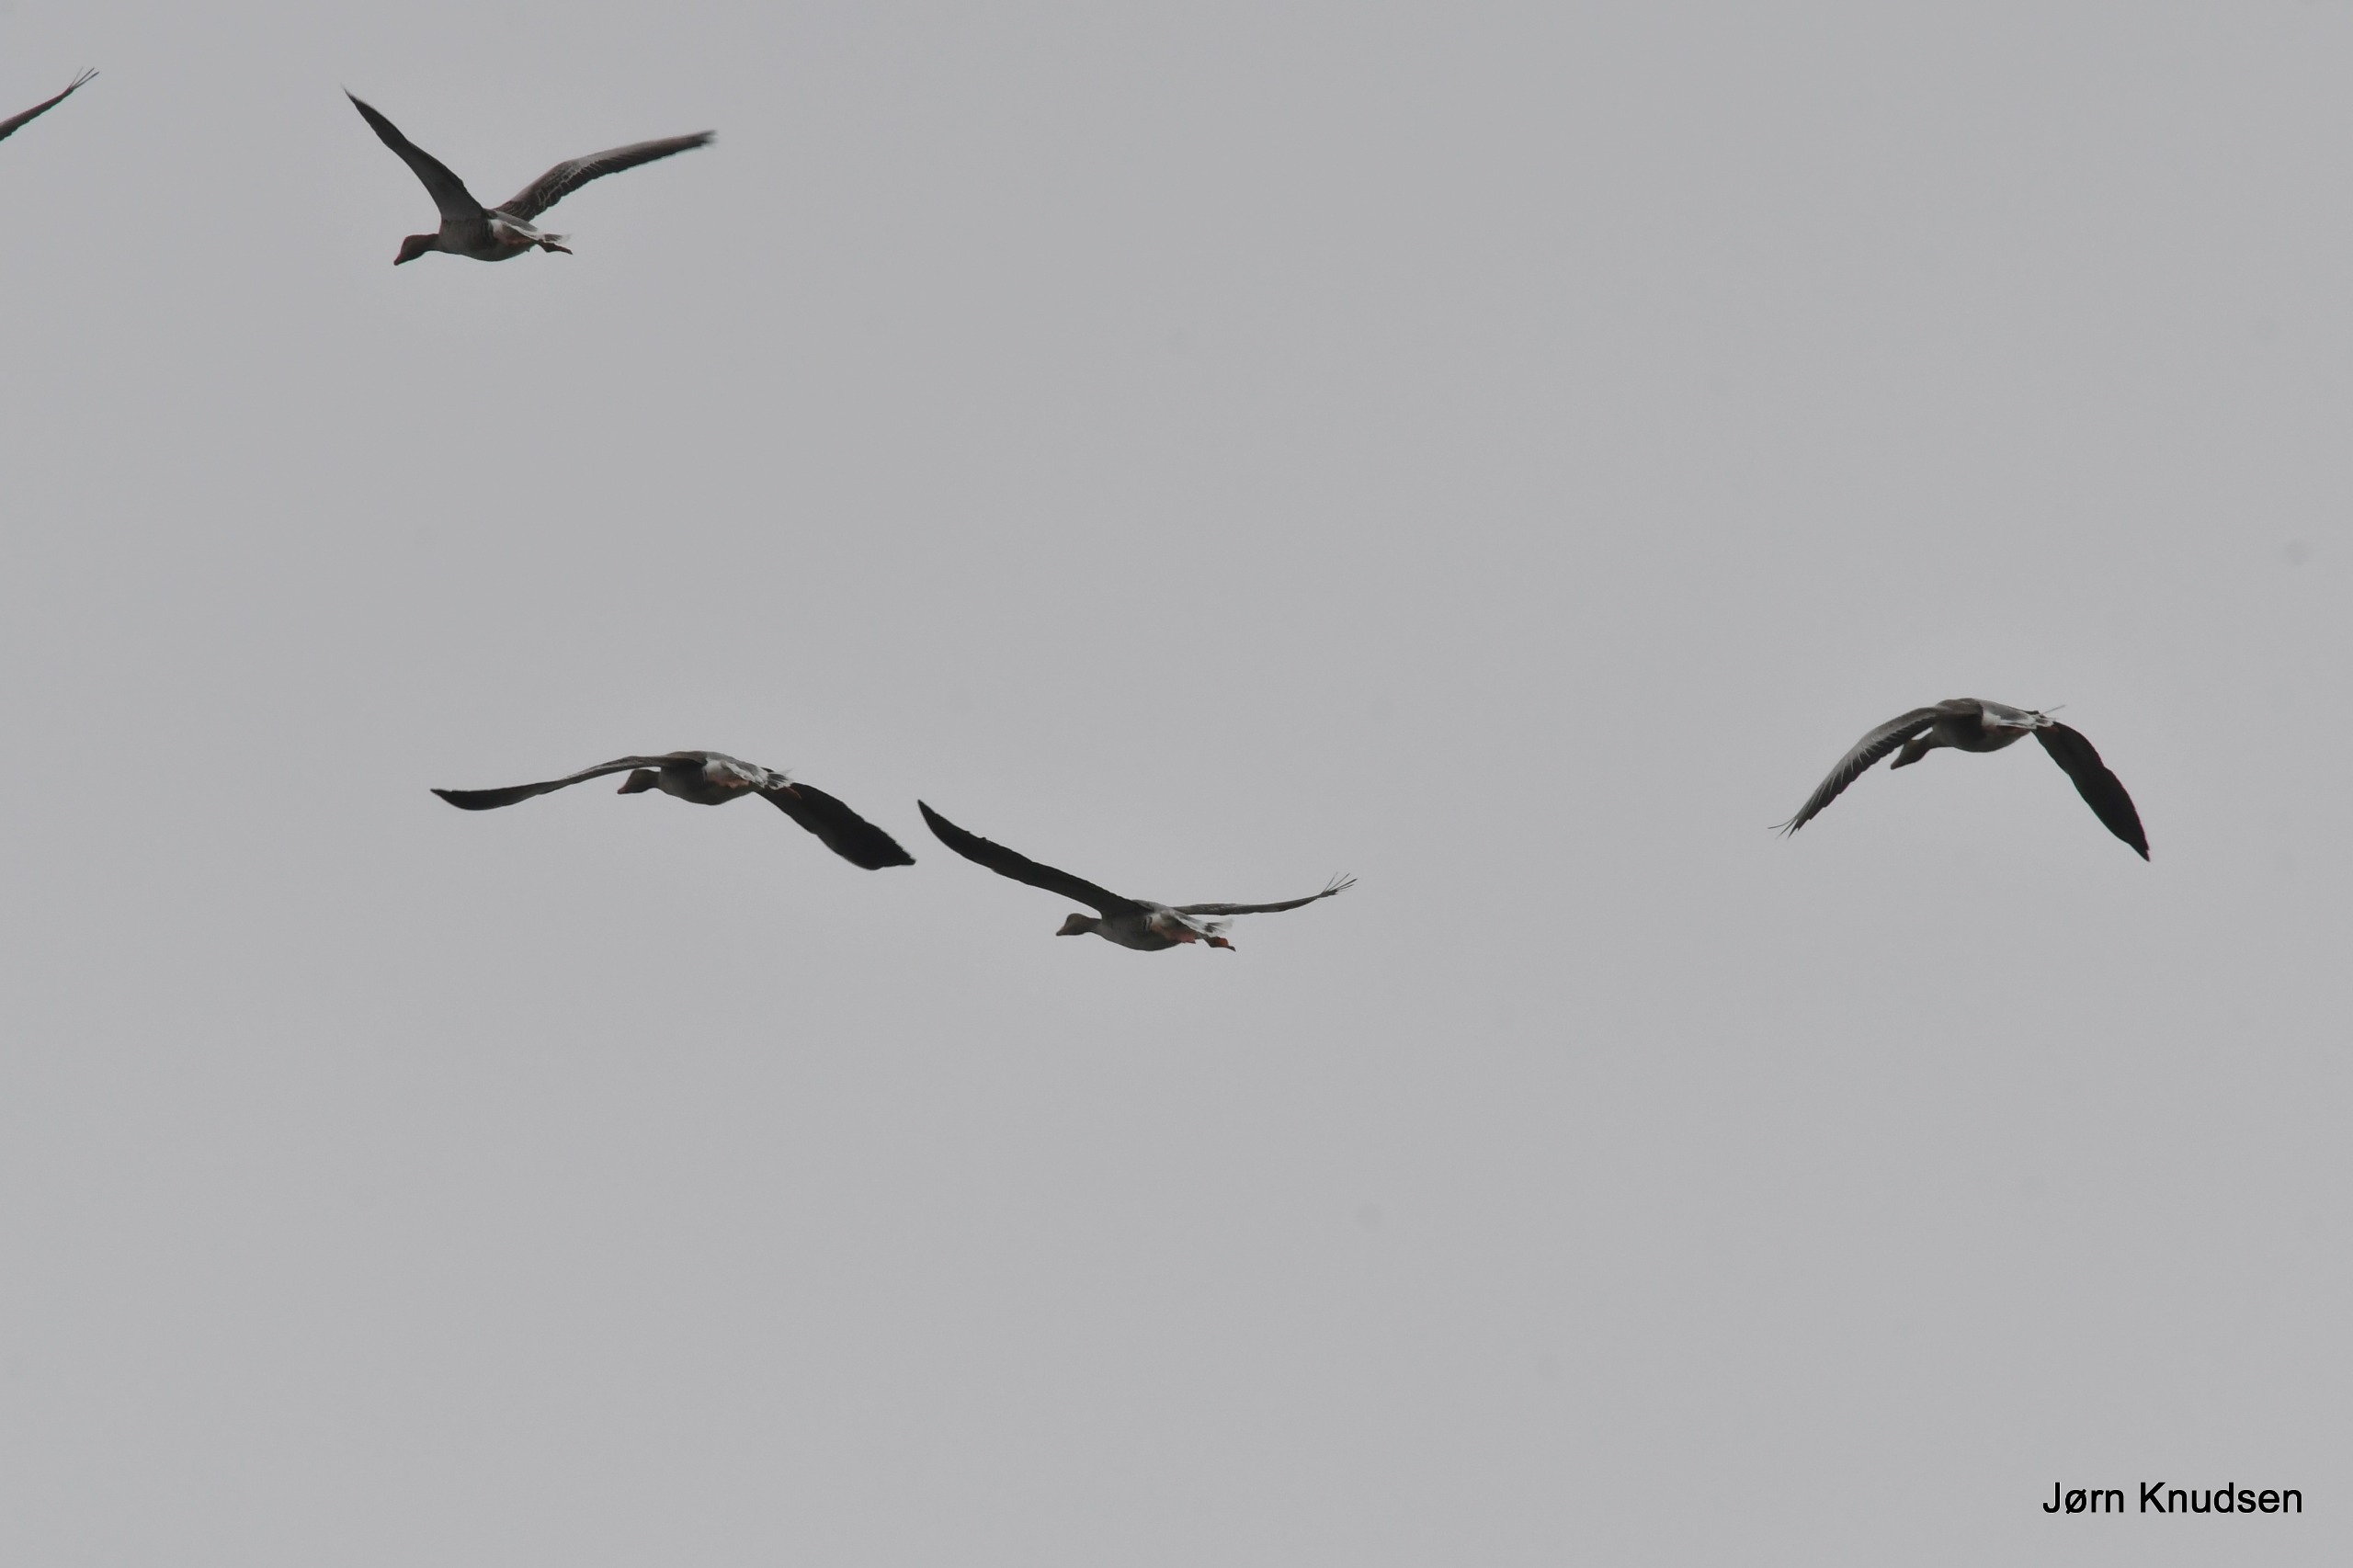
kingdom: Animalia
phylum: Chordata
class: Aves
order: Anseriformes
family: Anatidae
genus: Anser
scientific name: Anser anser
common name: Grågås
